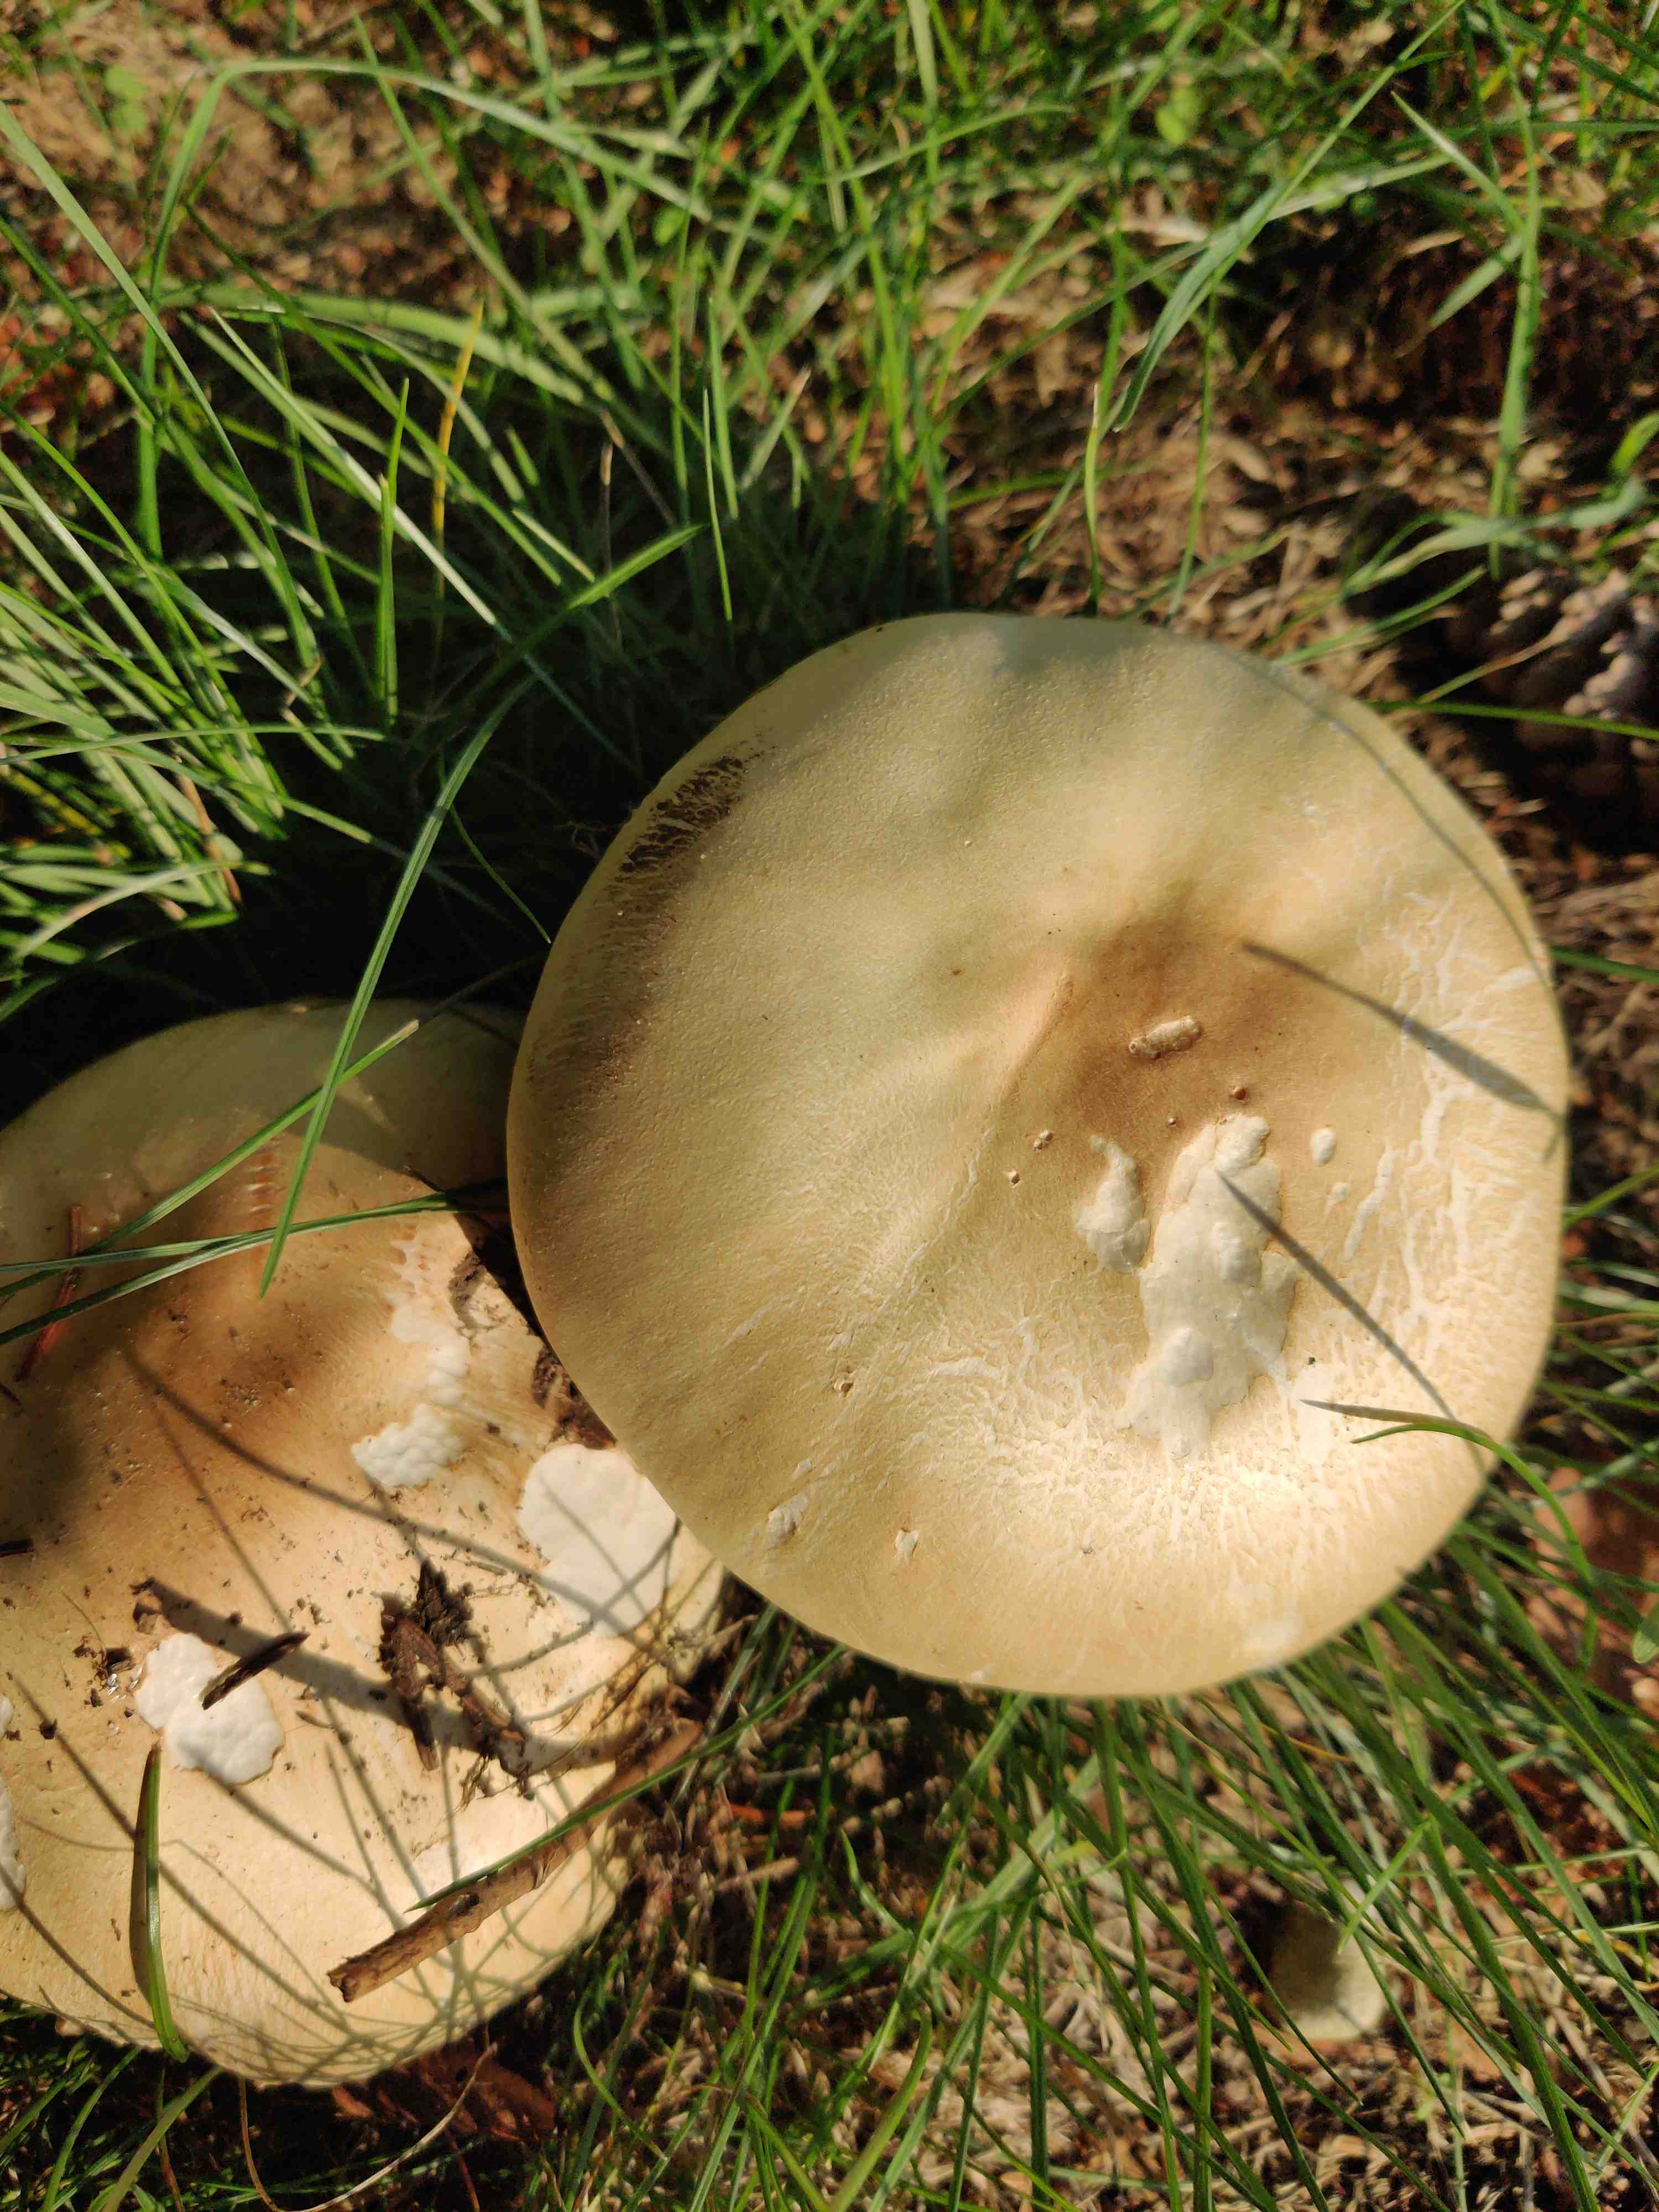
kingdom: Fungi
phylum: Basidiomycota
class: Agaricomycetes
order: Agaricales
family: Agaricaceae
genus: Agaricus
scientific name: Agaricus
